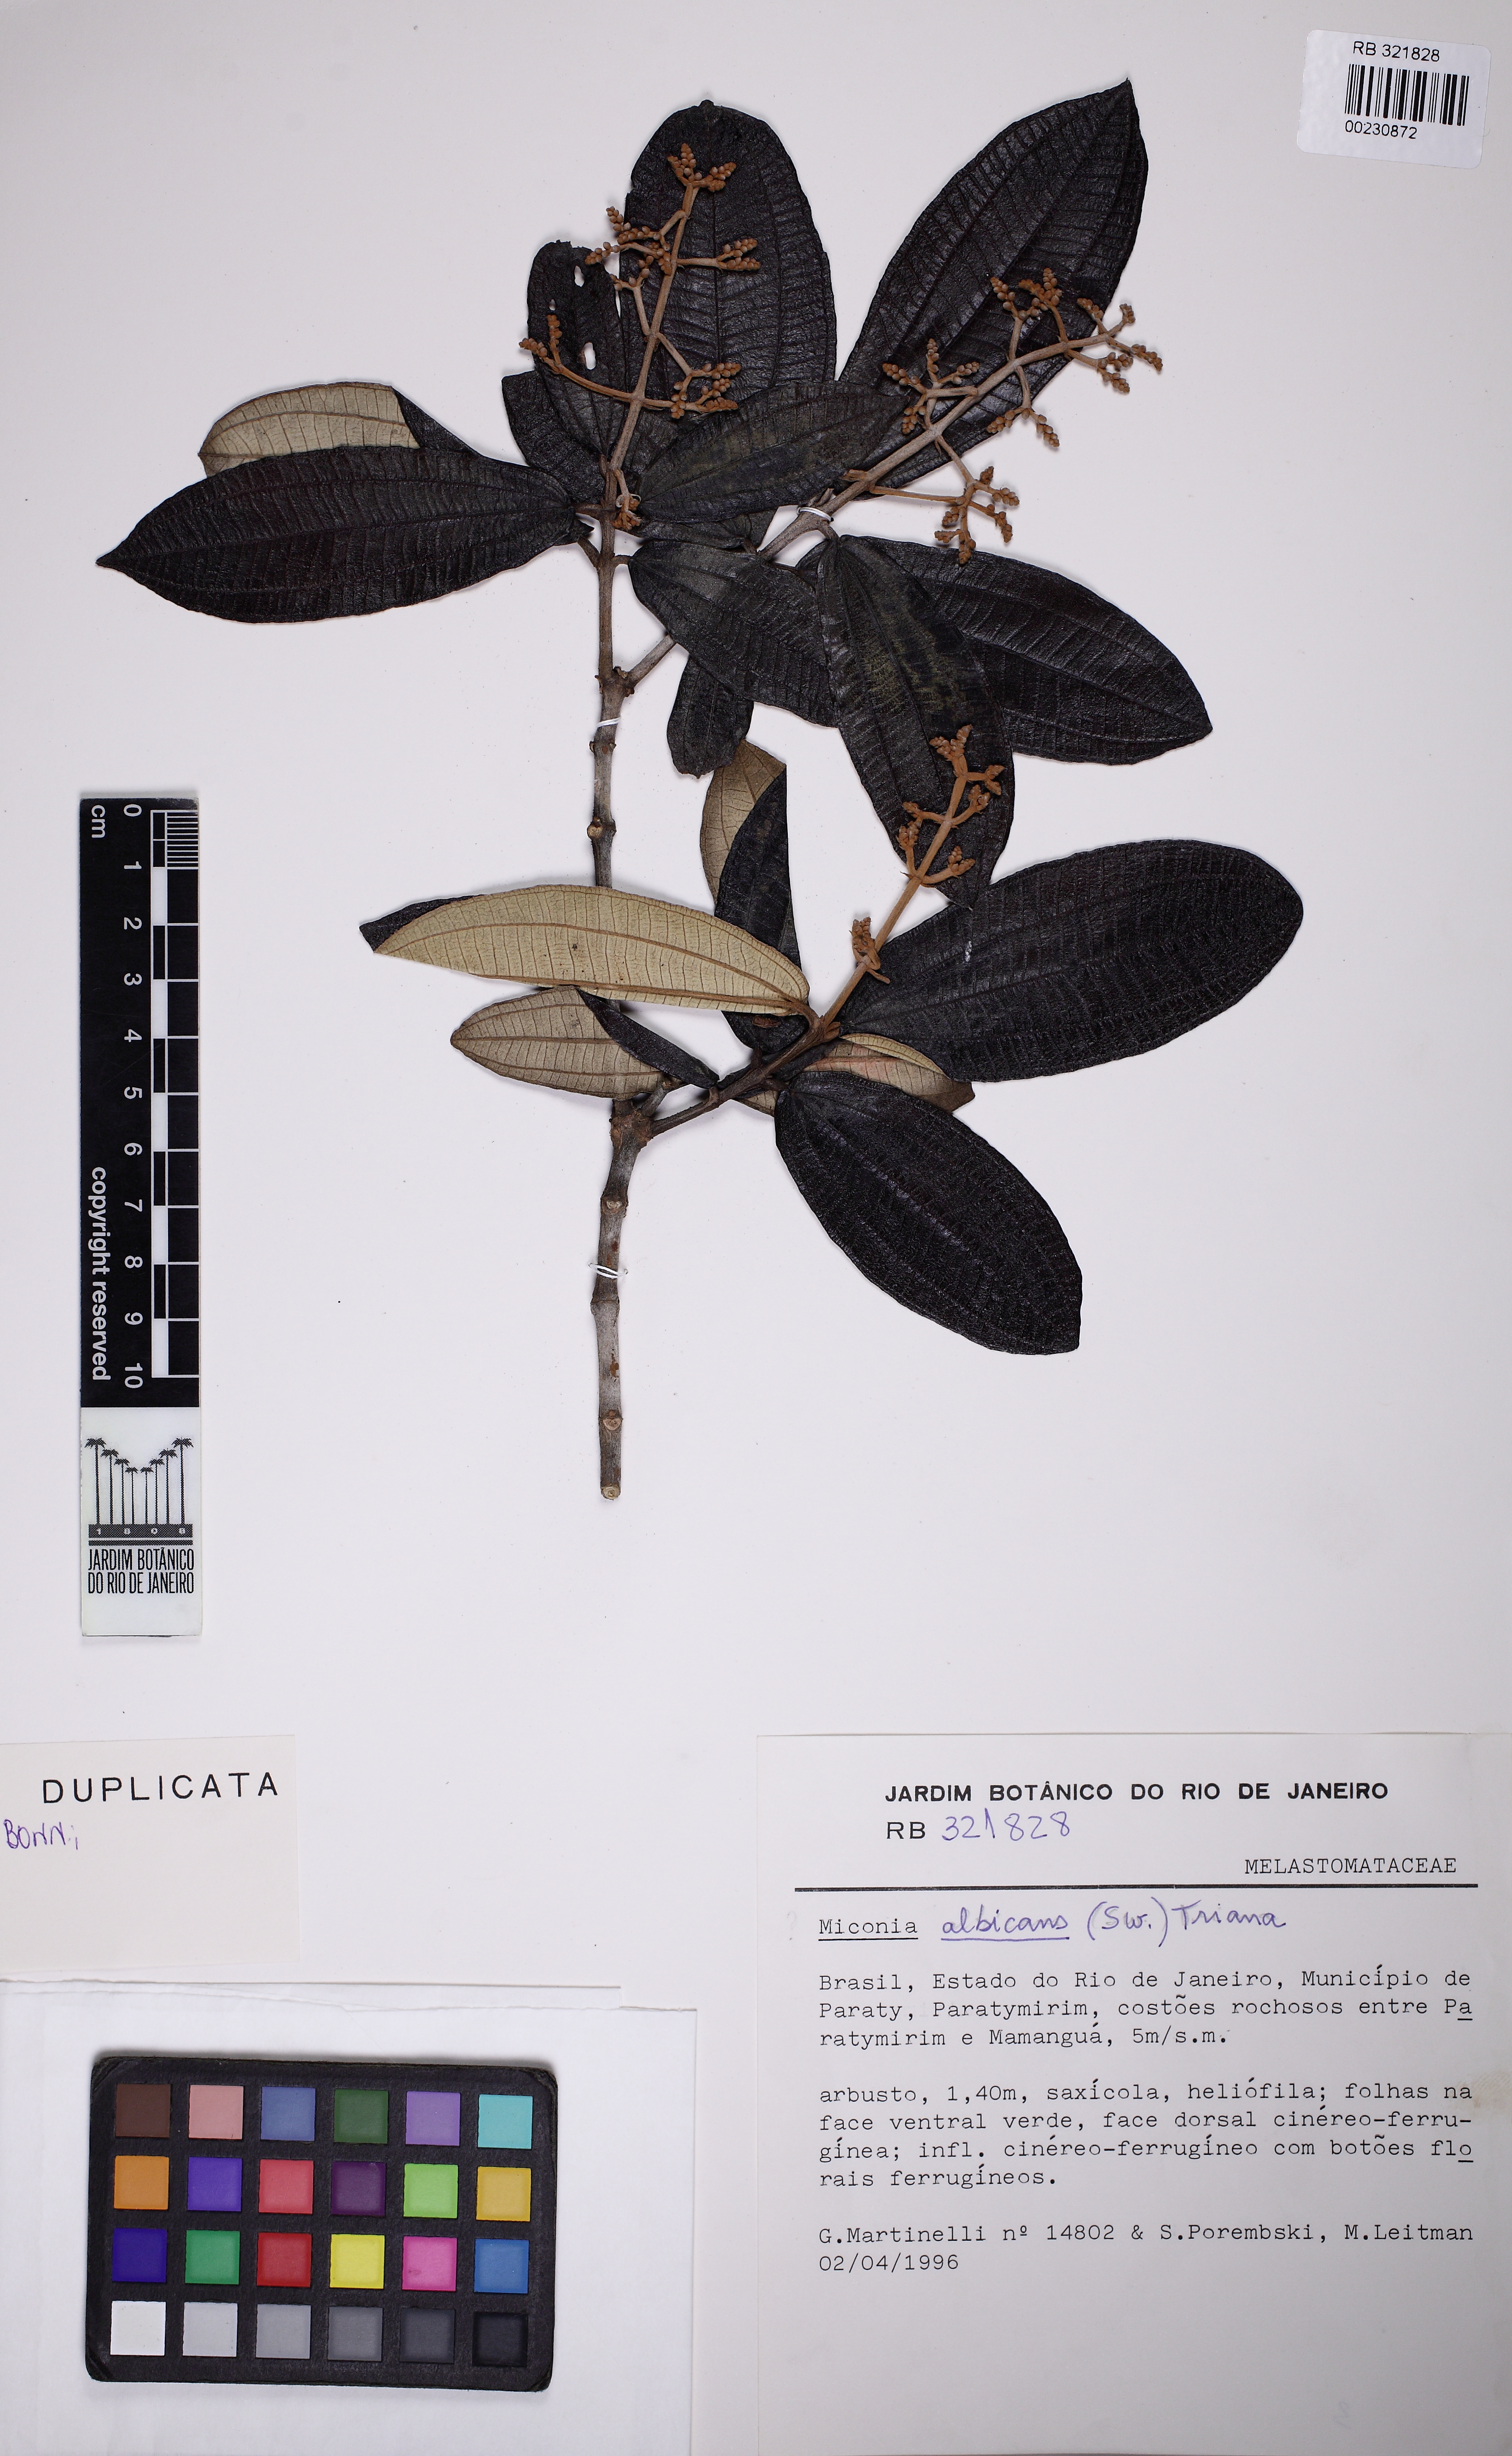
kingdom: Plantae
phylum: Tracheophyta
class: Magnoliopsida
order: Myrtales
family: Melastomataceae
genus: Miconia
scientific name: Miconia albicans
